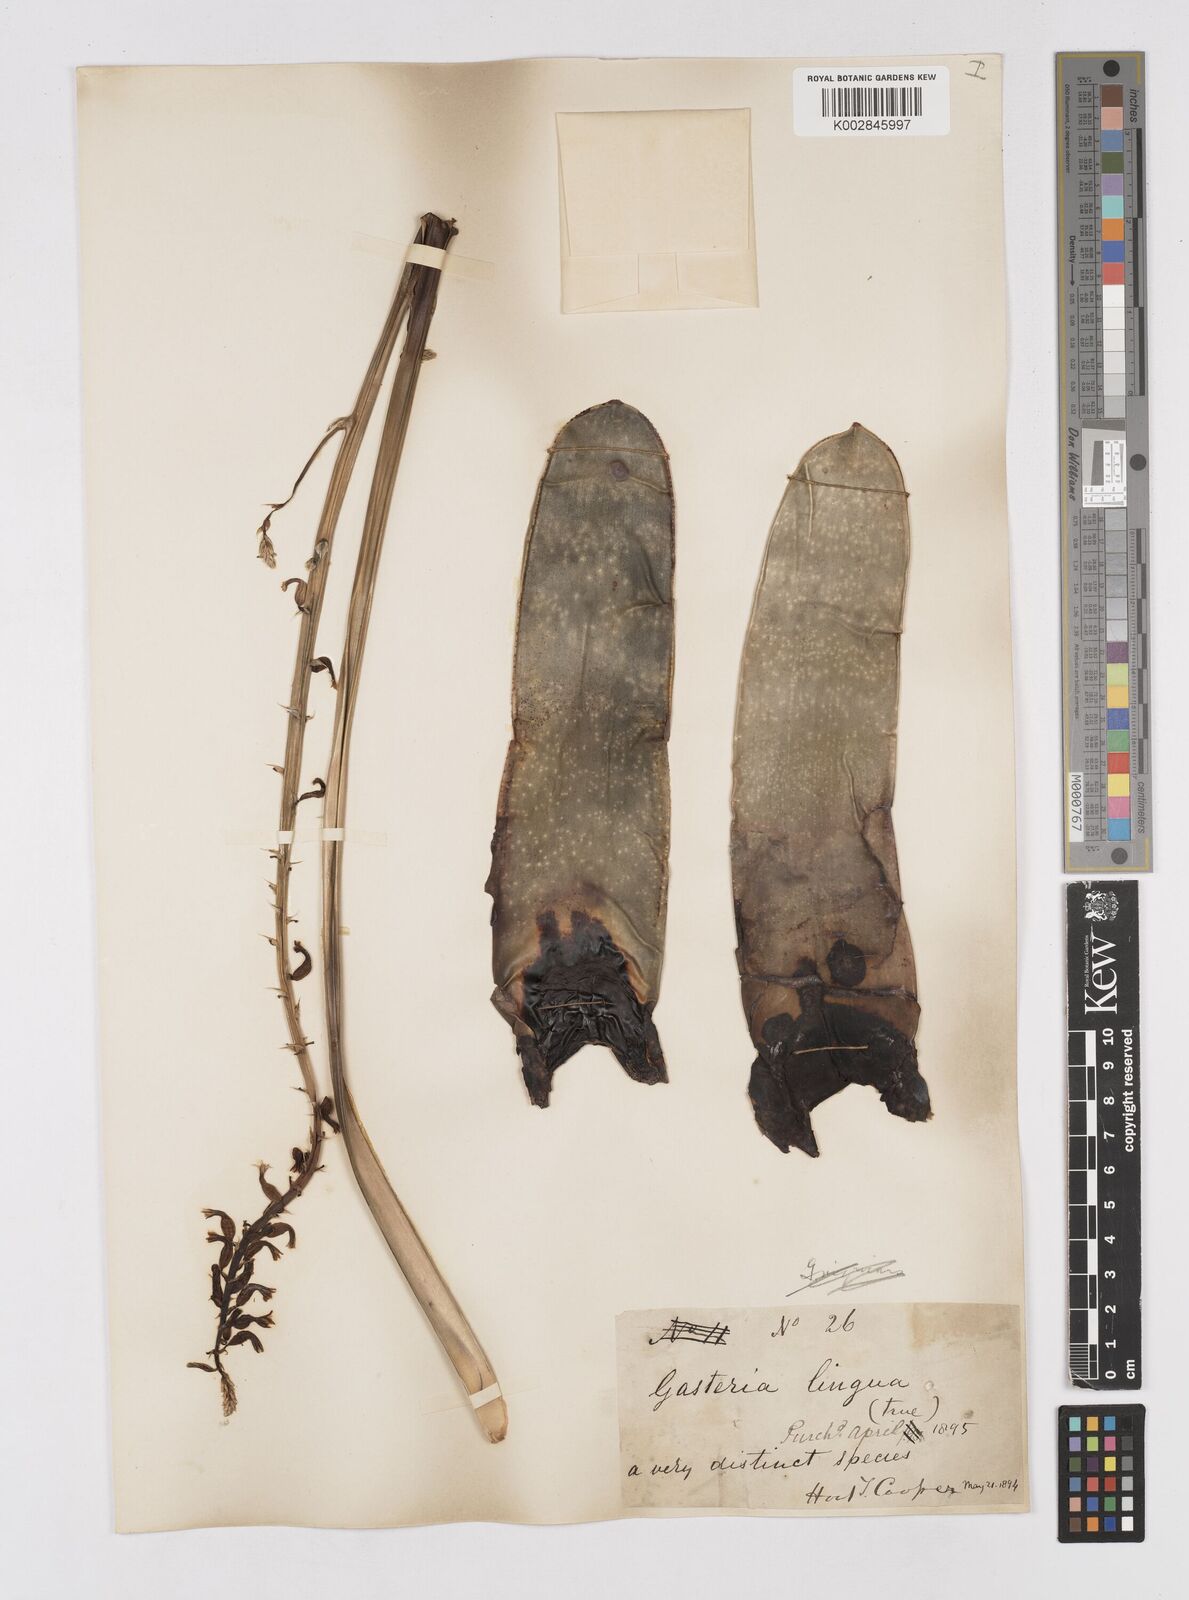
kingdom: Plantae
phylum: Tracheophyta
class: Liliopsida
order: Asparagales
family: Asphodelaceae
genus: Gasteria
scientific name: Gasteria lingua
